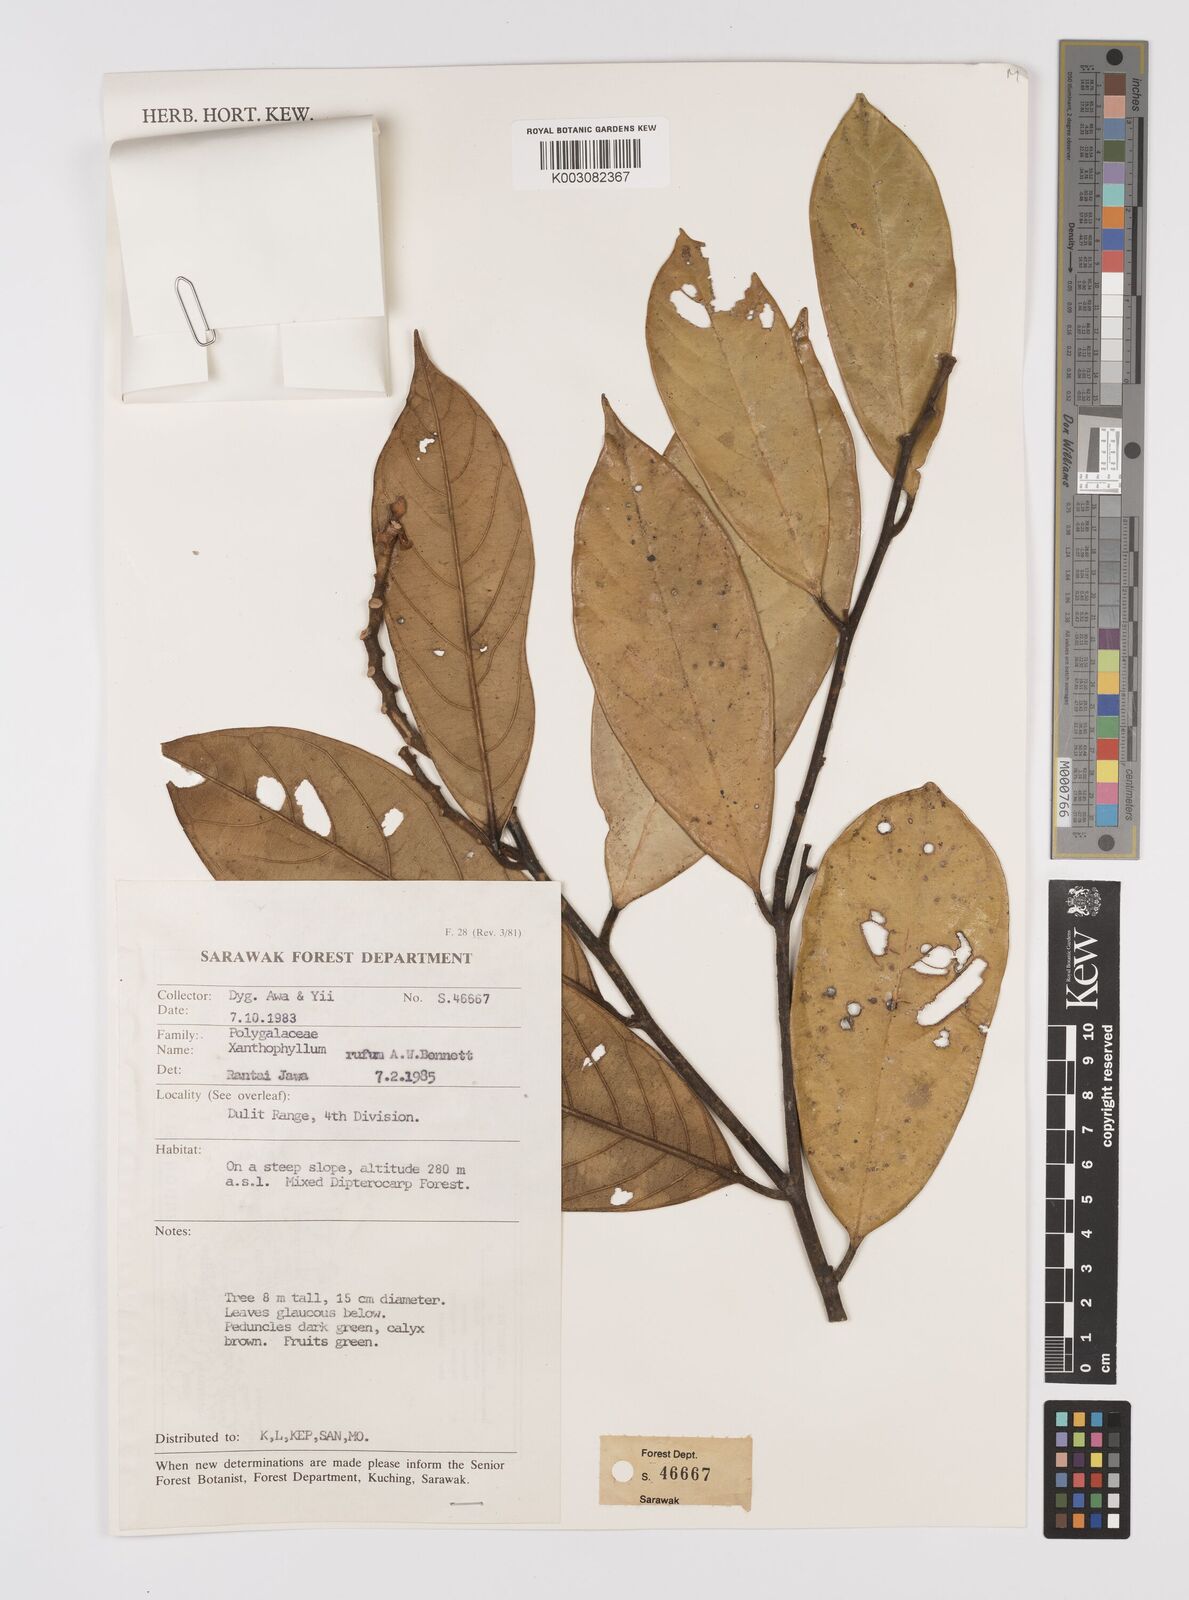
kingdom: Plantae
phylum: Tracheophyta
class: Magnoliopsida
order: Fabales
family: Polygalaceae
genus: Xanthophyllum
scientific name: Xanthophyllum rufum
